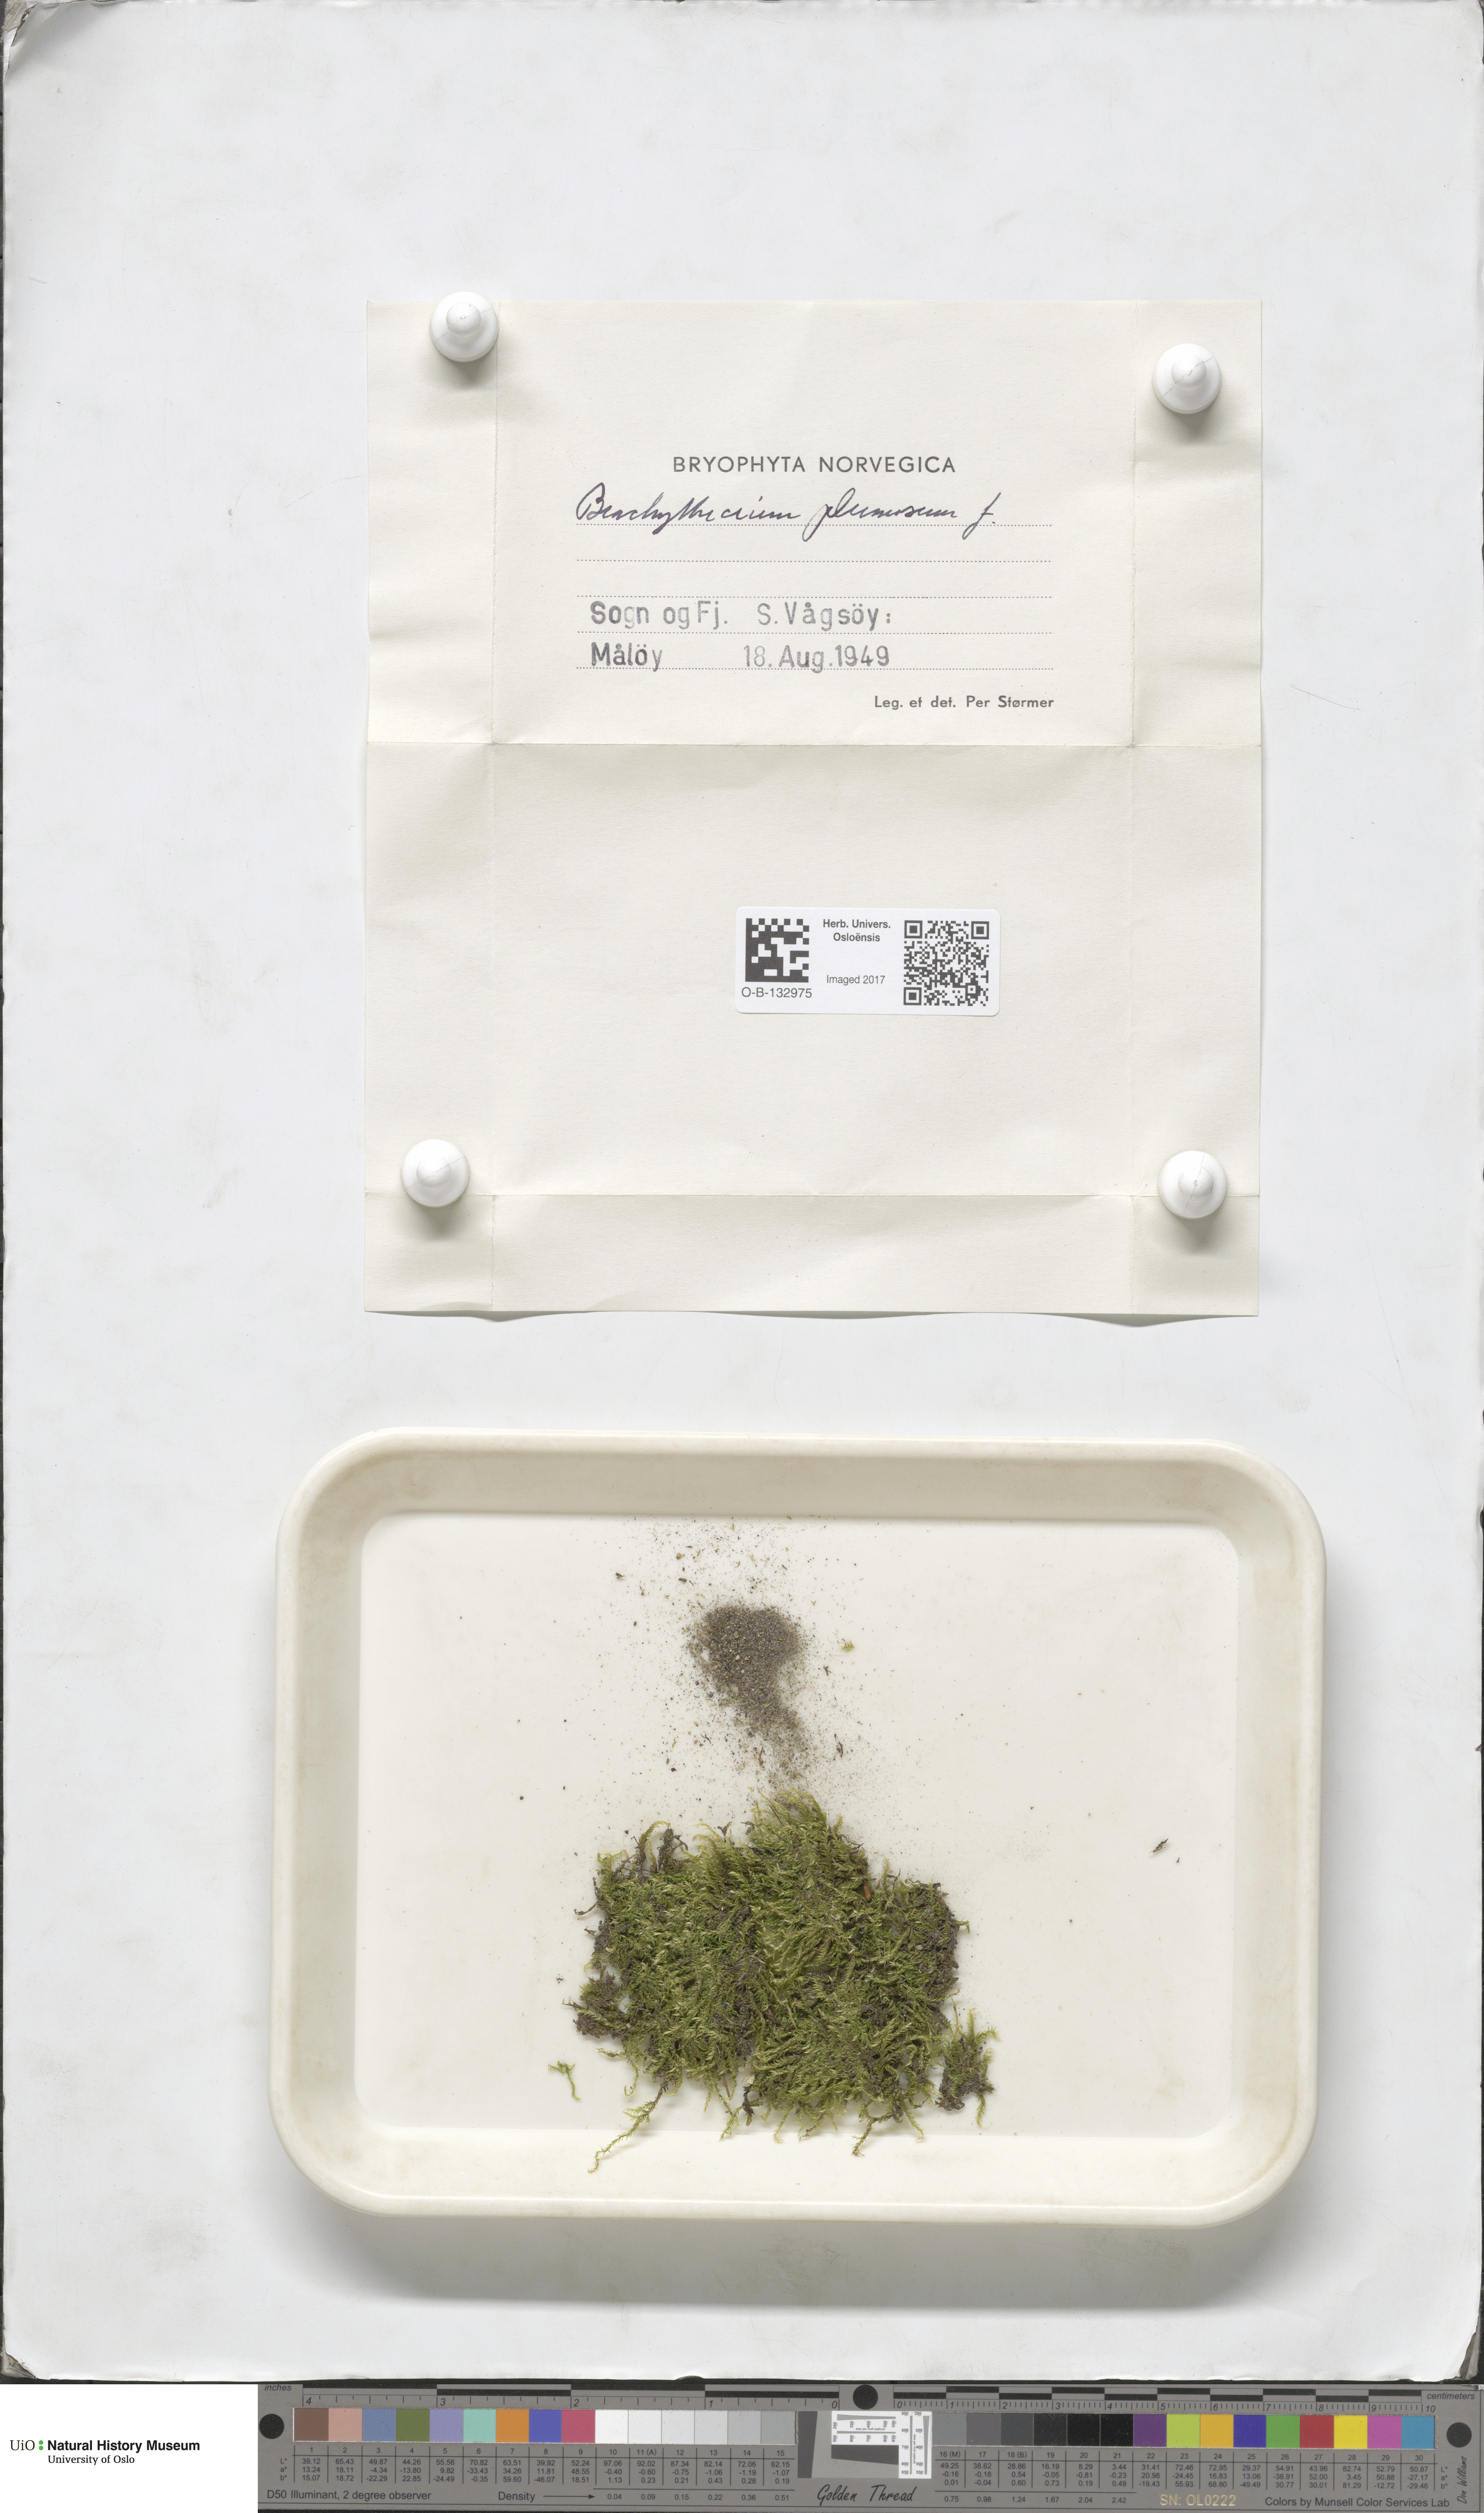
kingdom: Plantae
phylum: Bryophyta
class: Bryopsida
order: Hypnales
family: Brachytheciaceae
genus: Sciuro-hypnum
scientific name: Sciuro-hypnum plumosum
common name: Rusty feather-moss
